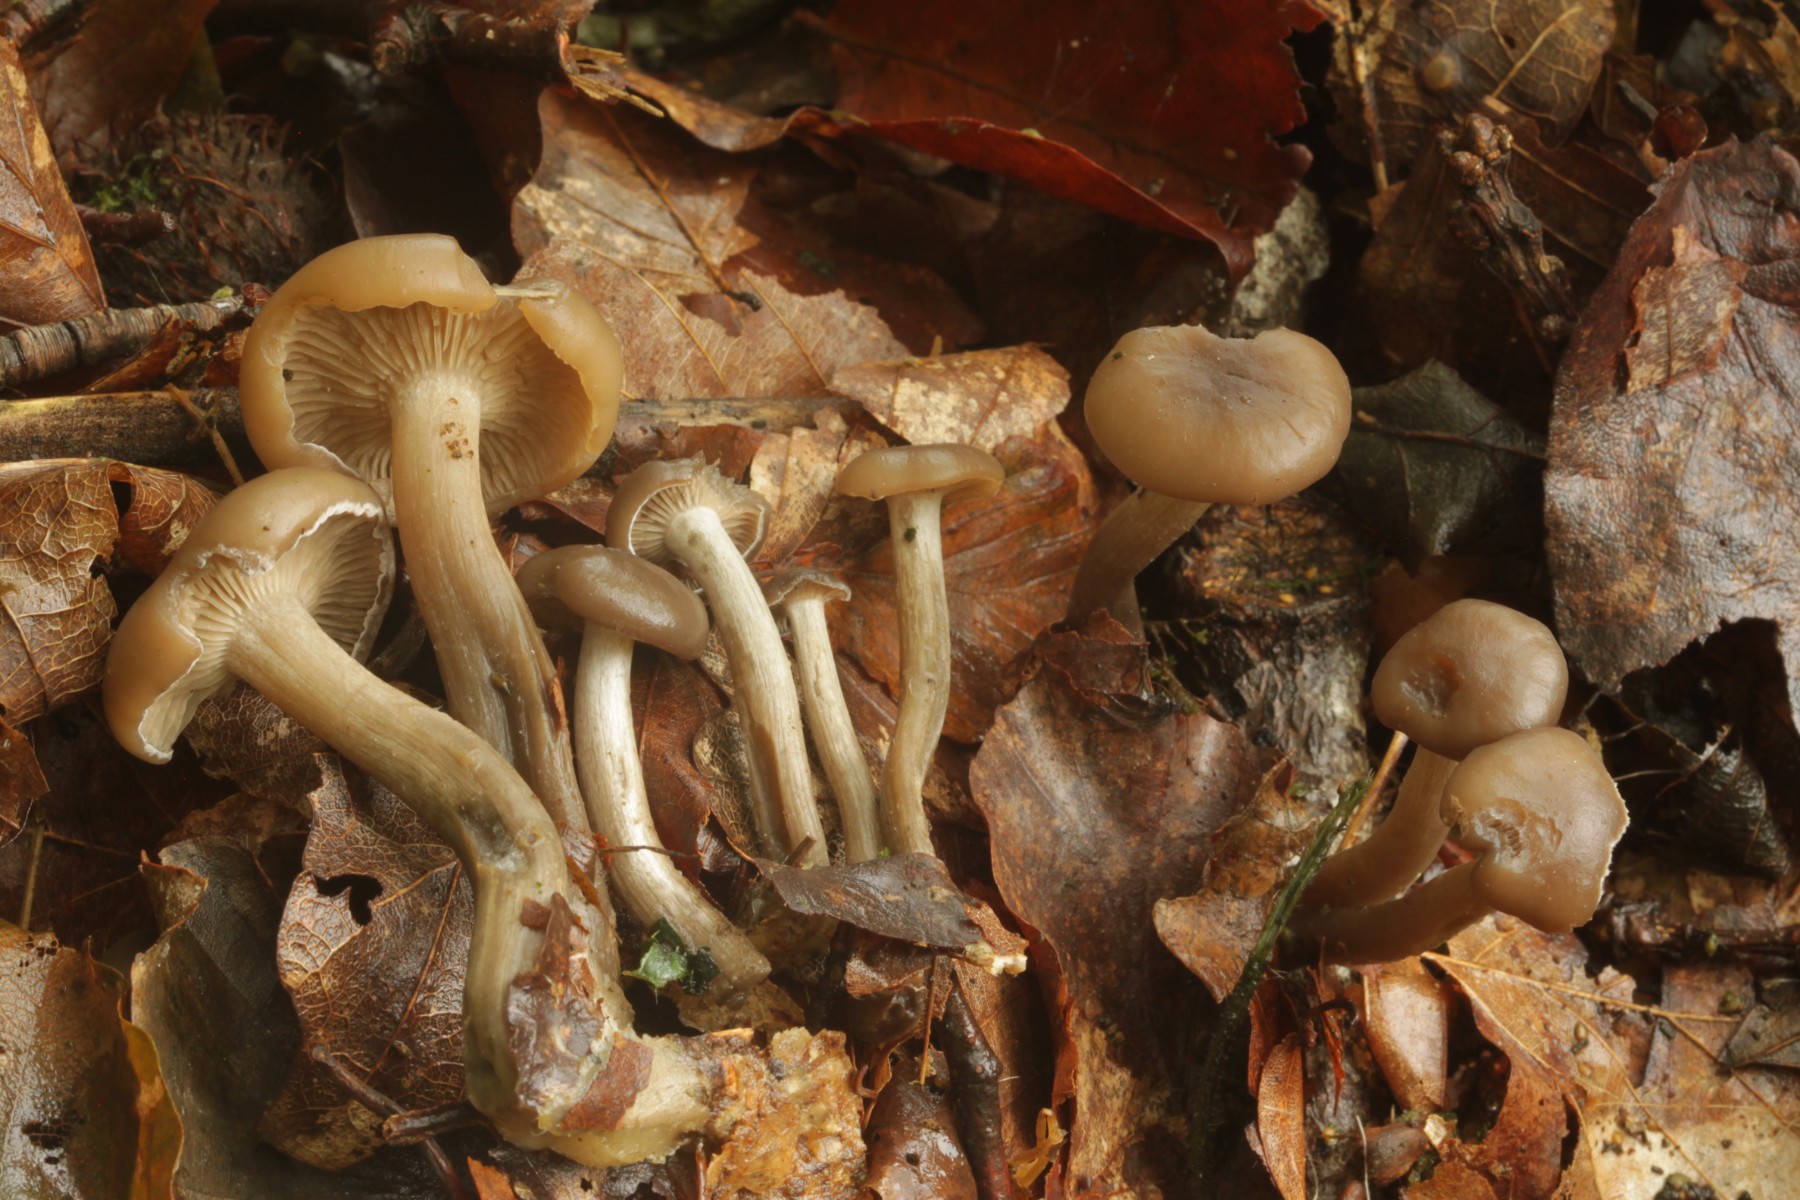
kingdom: Fungi
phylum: Basidiomycota
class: Agaricomycetes
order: Agaricales
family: Lyophyllaceae
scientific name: Lyophyllaceae
